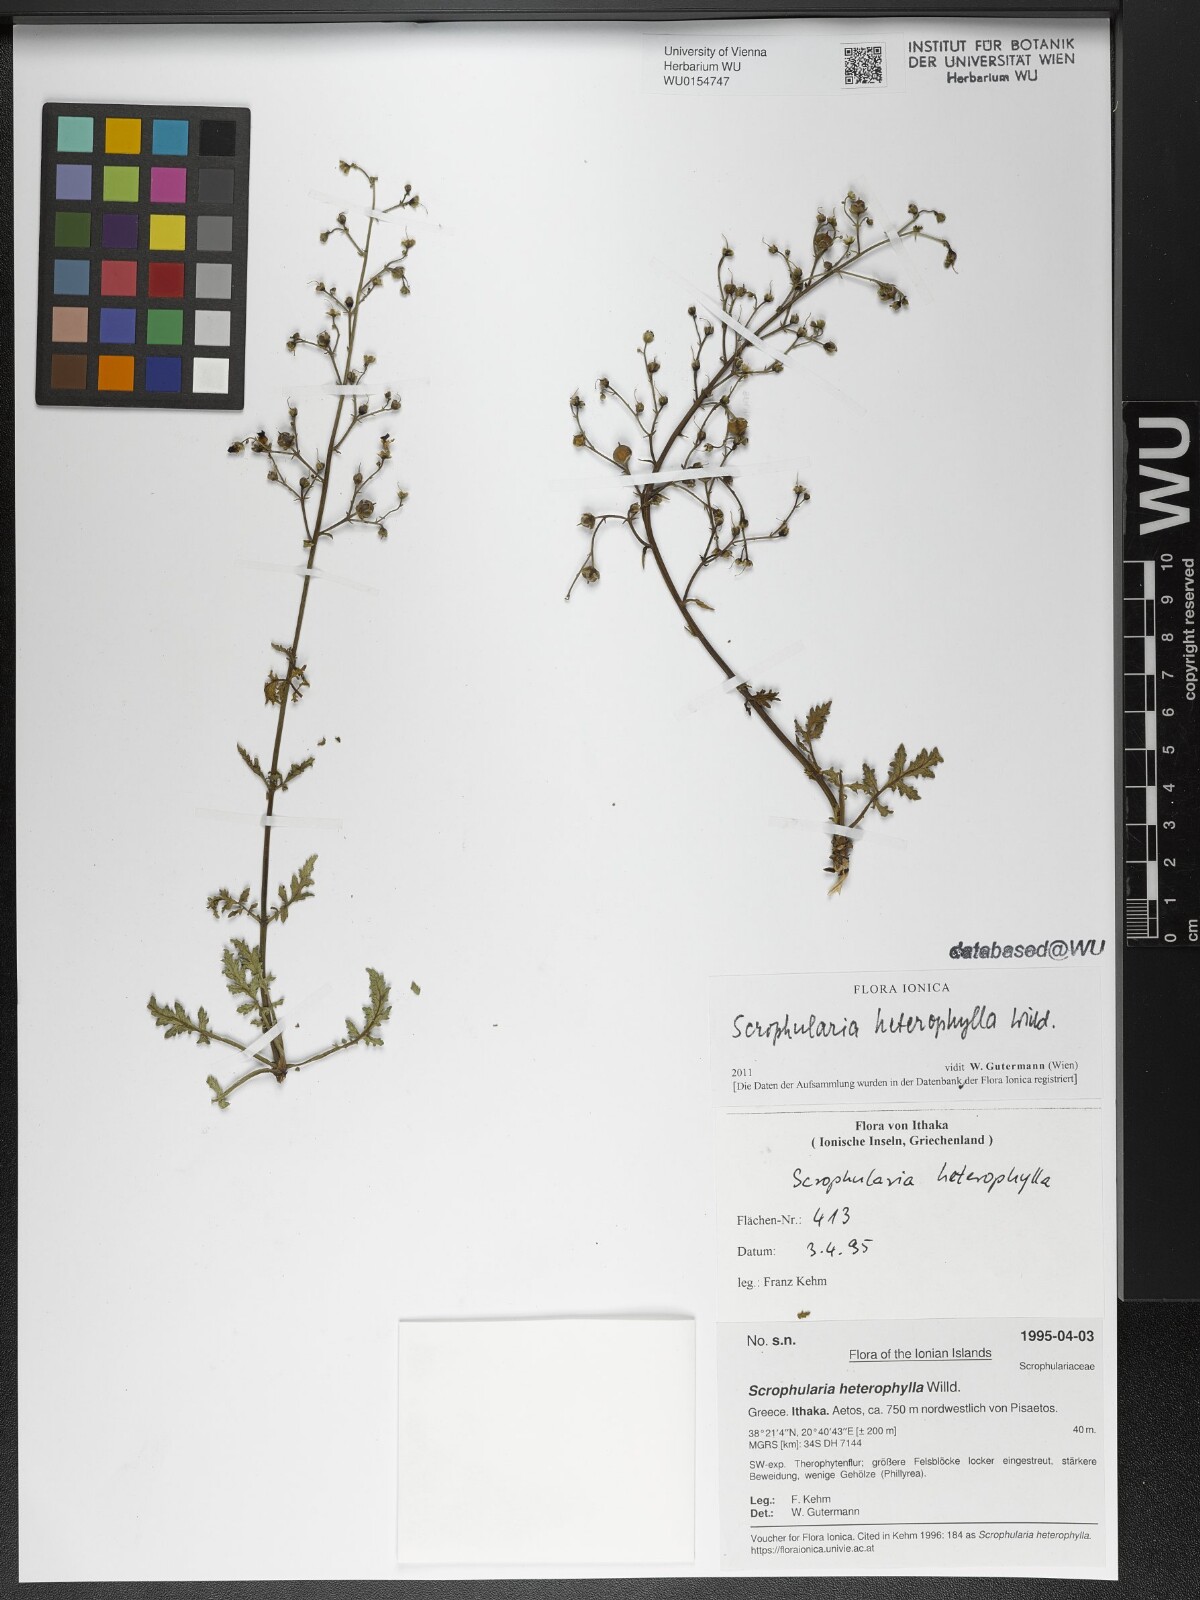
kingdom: Plantae
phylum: Tracheophyta
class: Magnoliopsida
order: Lamiales
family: Scrophulariaceae
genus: Scrophularia
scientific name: Scrophularia heterophylla
